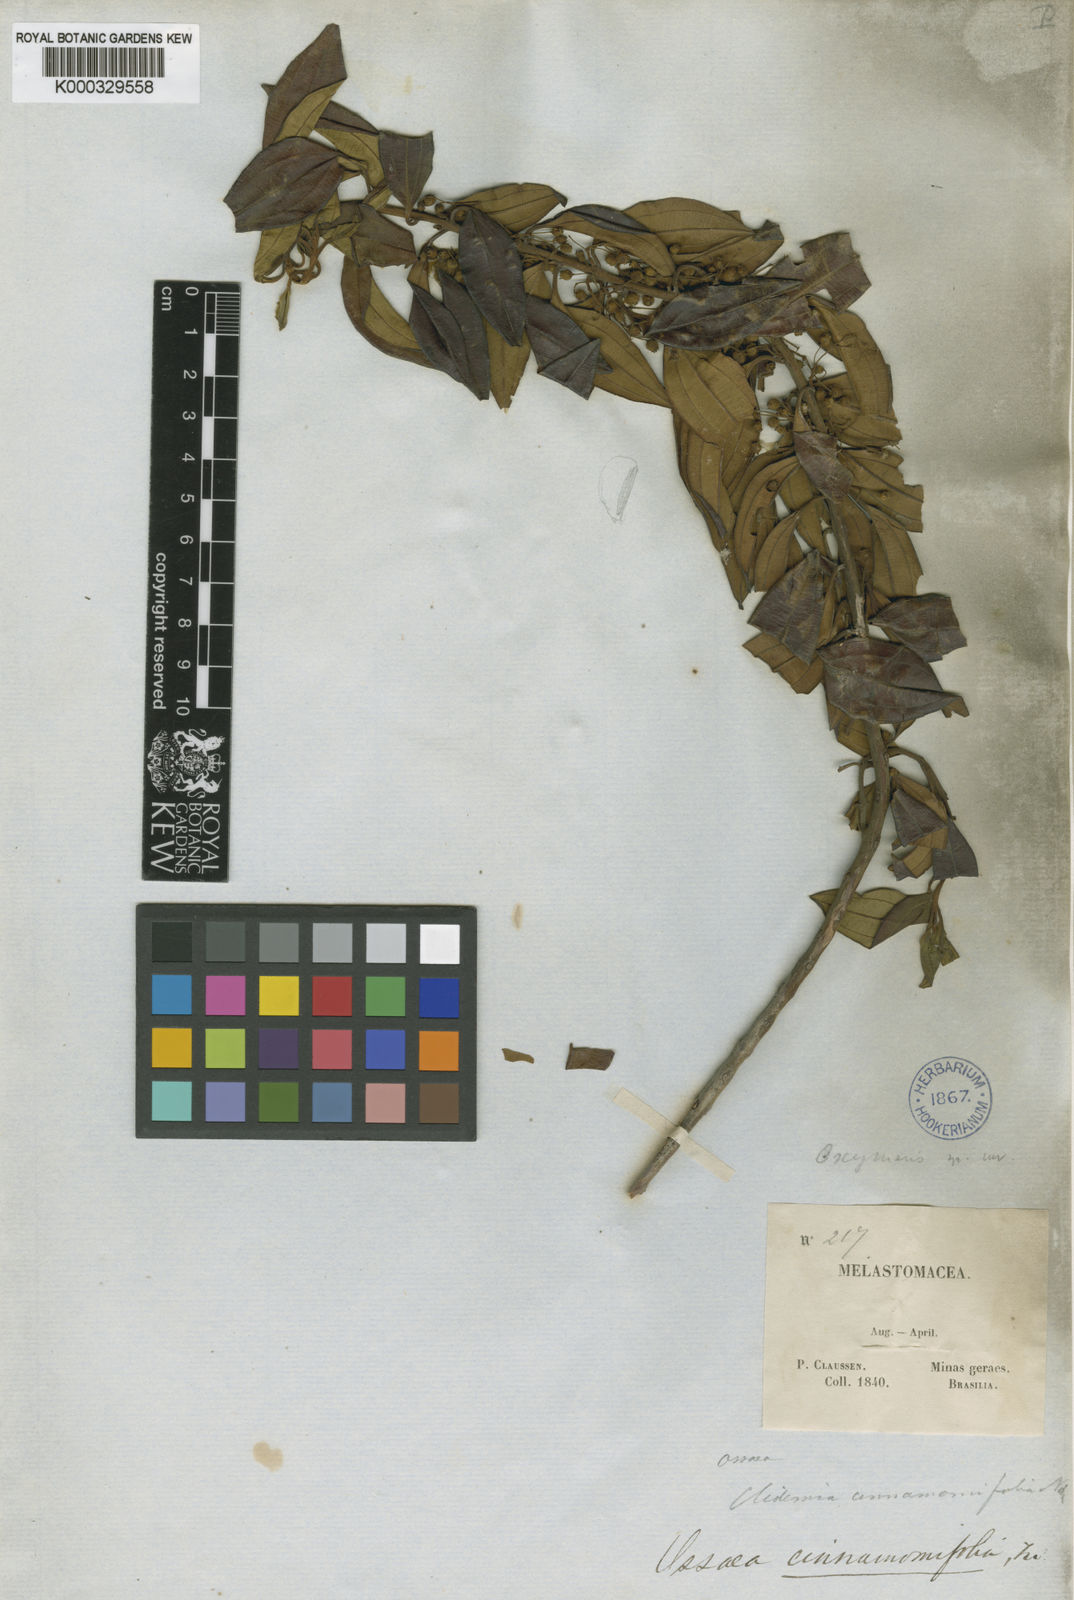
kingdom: Plantae
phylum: Tracheophyta
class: Magnoliopsida
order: Myrtales
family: Melastomataceae
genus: Miconia
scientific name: Miconia leacinnamomifolia
